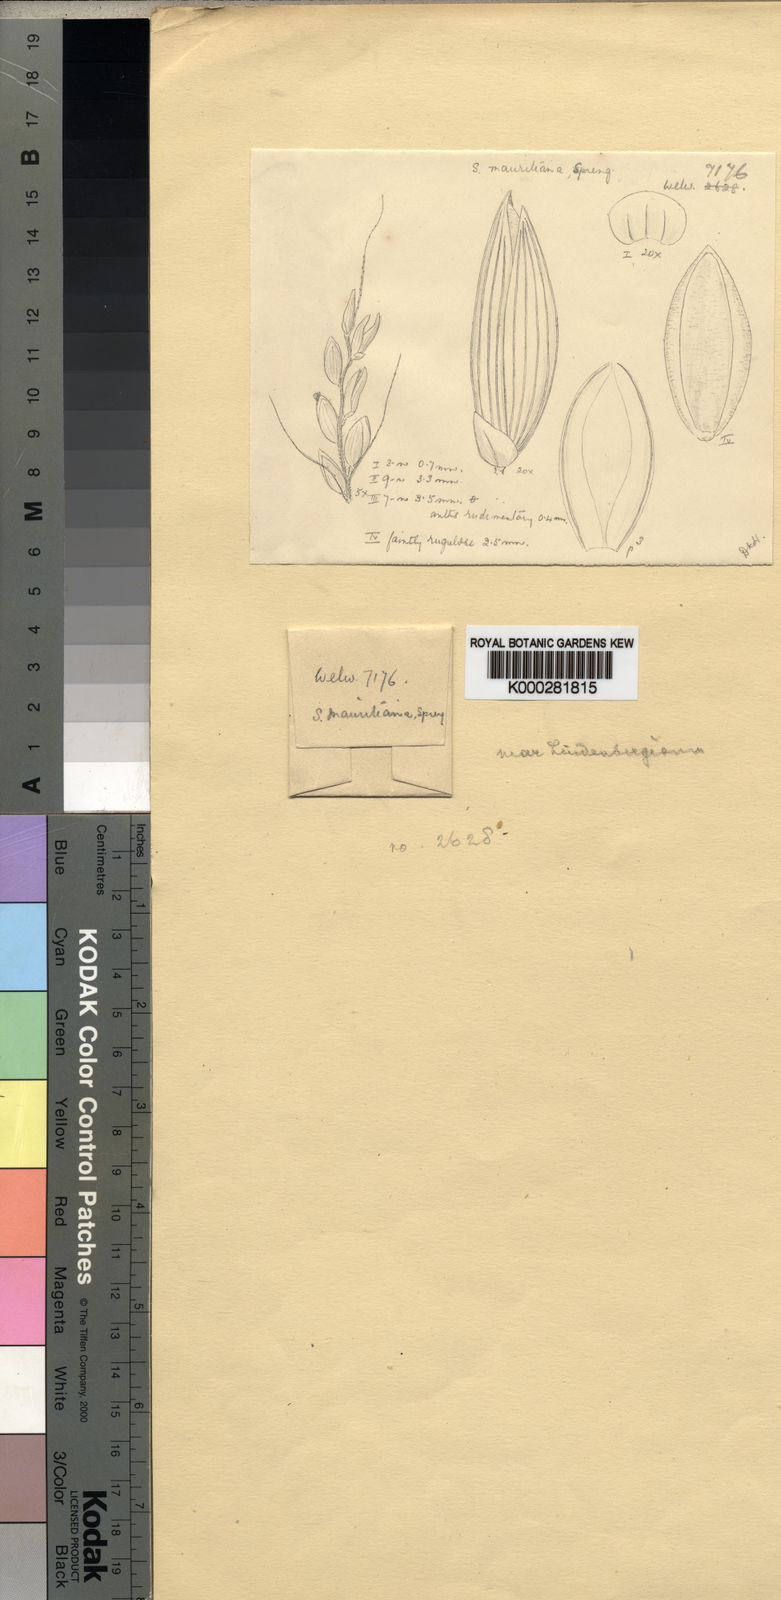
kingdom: Plantae
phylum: Tracheophyta
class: Liliopsida
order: Poales
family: Poaceae
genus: Setaria
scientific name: Setaria homonyma
